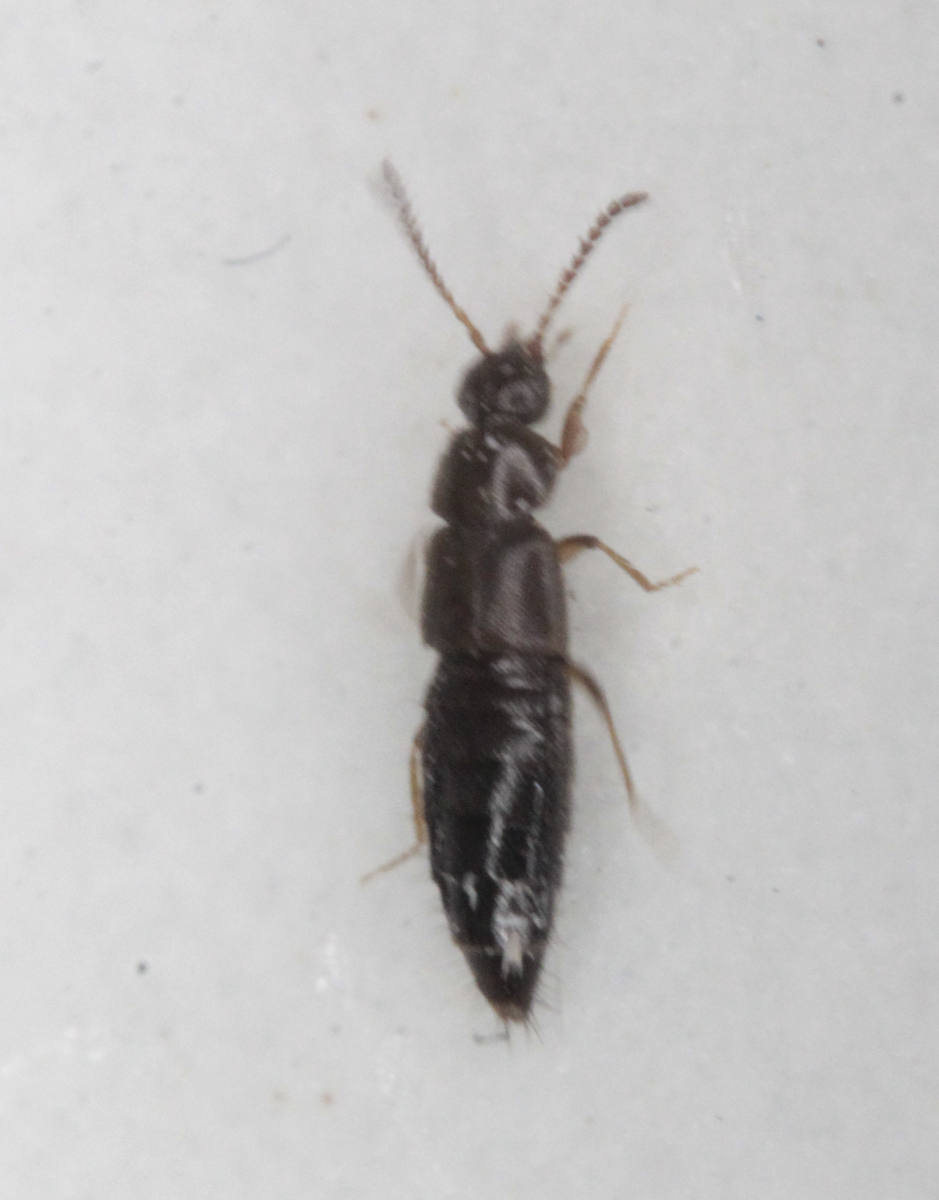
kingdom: Animalia
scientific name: Animalia
